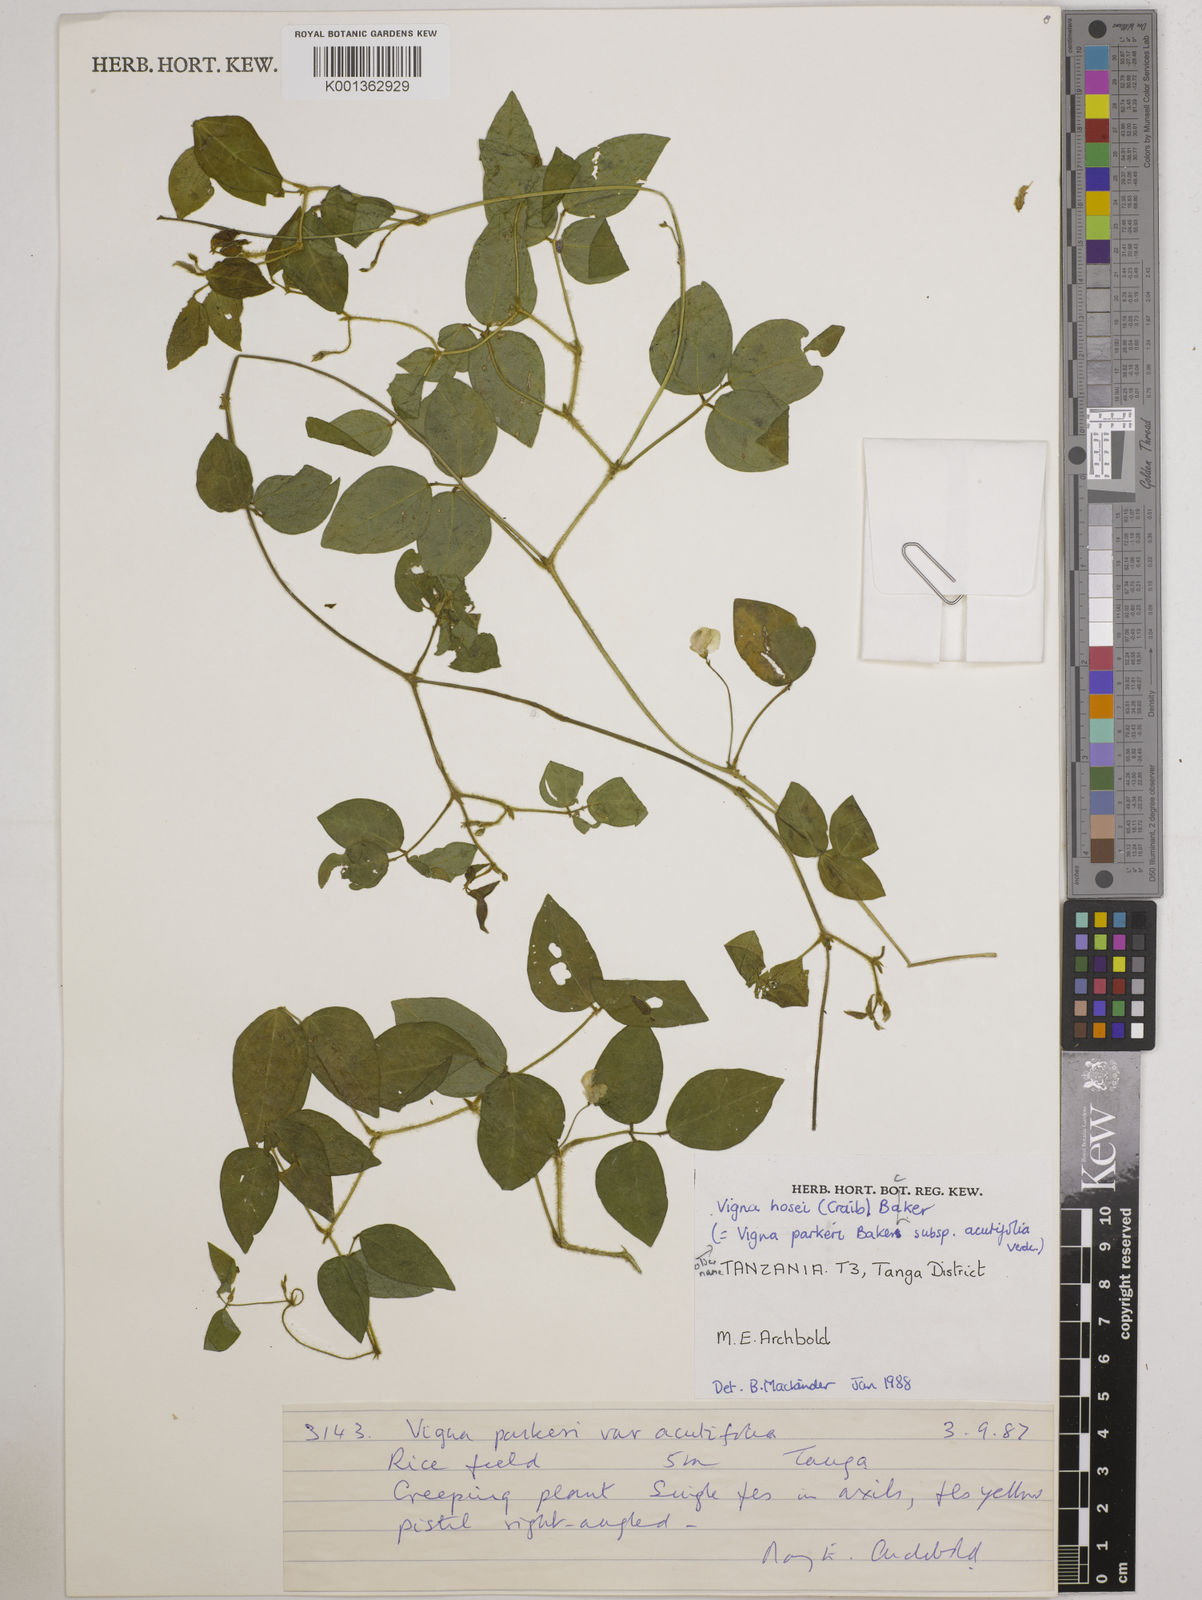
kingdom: Plantae
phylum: Tracheophyta
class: Magnoliopsida
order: Fabales
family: Fabaceae
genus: Vigna
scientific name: Vigna hosei
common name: Sarawak-bean
